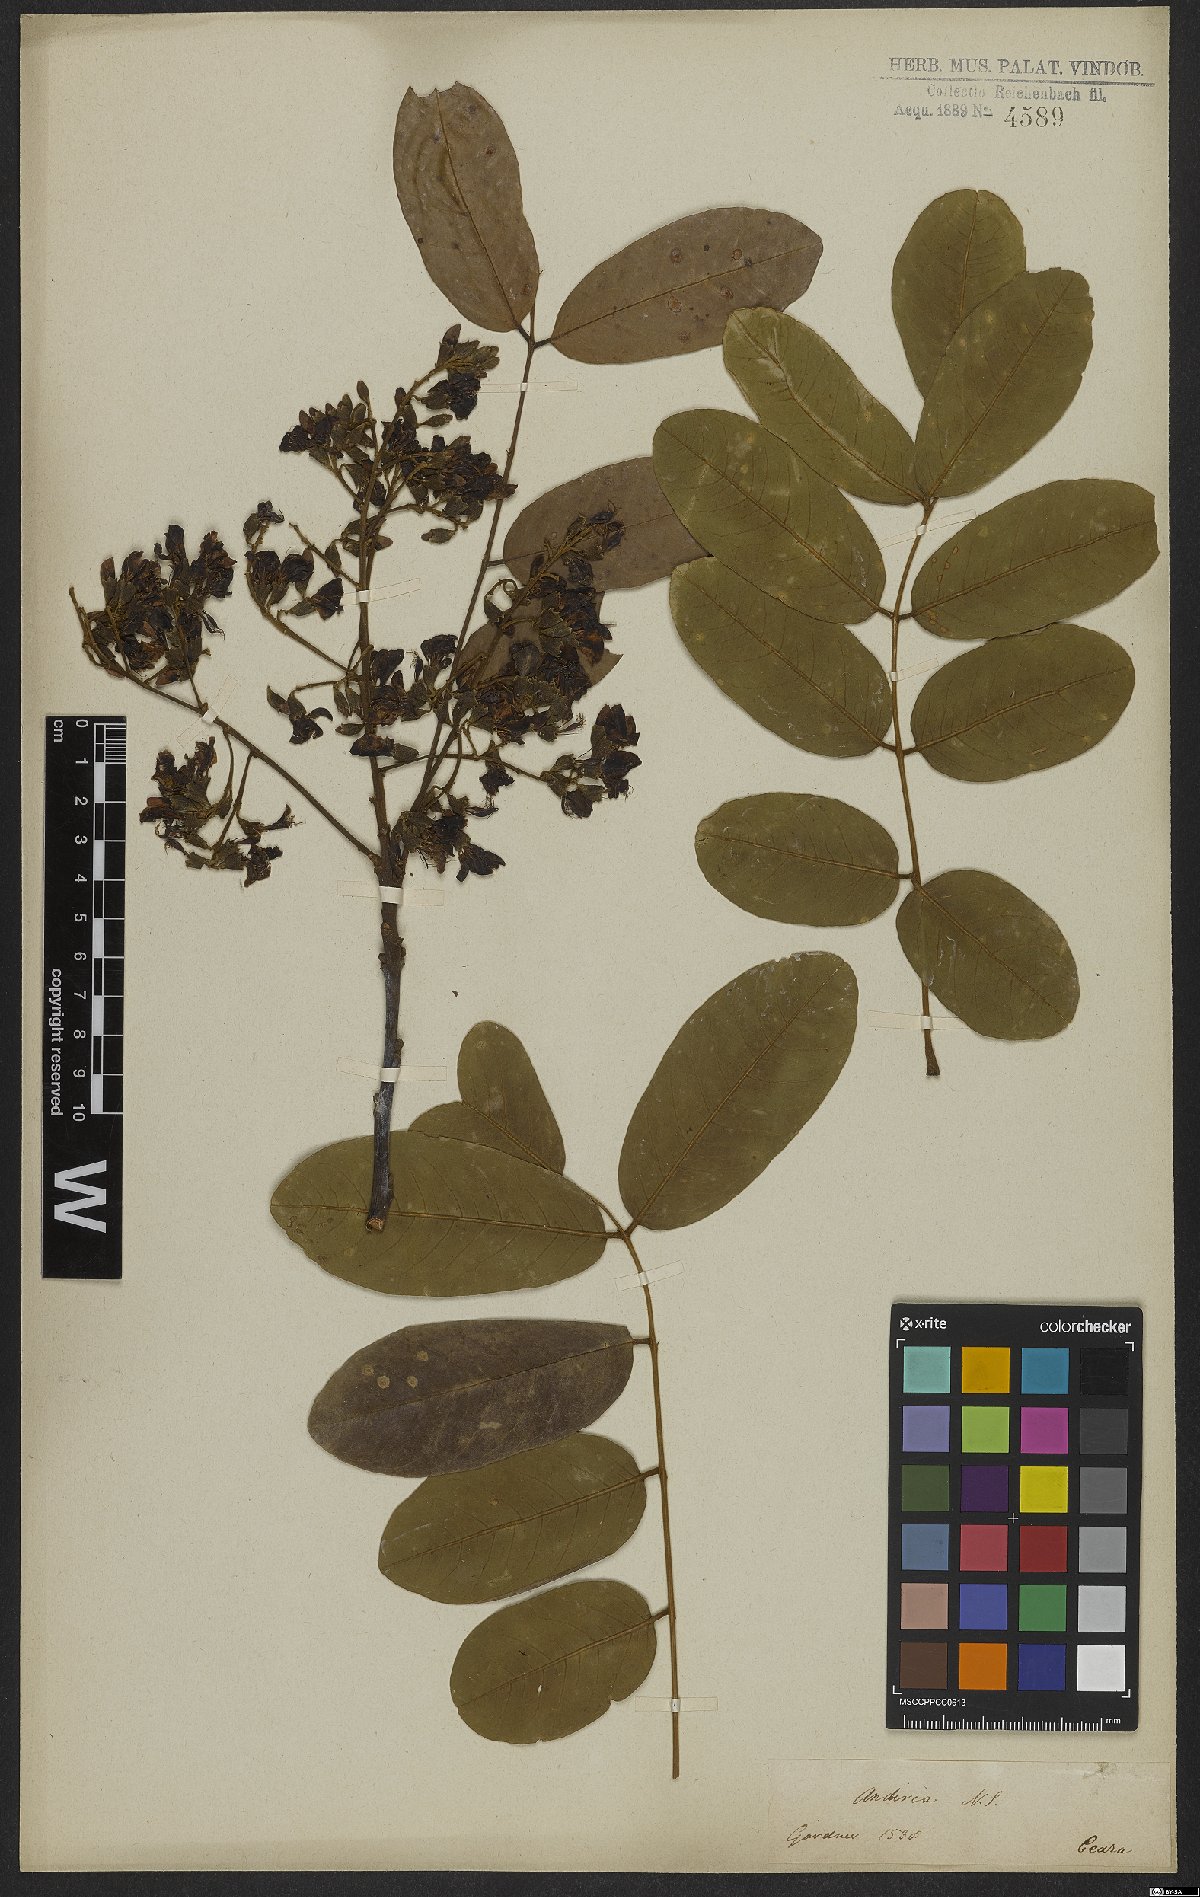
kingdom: Plantae
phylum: Tracheophyta
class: Magnoliopsida
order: Fabales
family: Fabaceae
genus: Andira
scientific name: Andira
